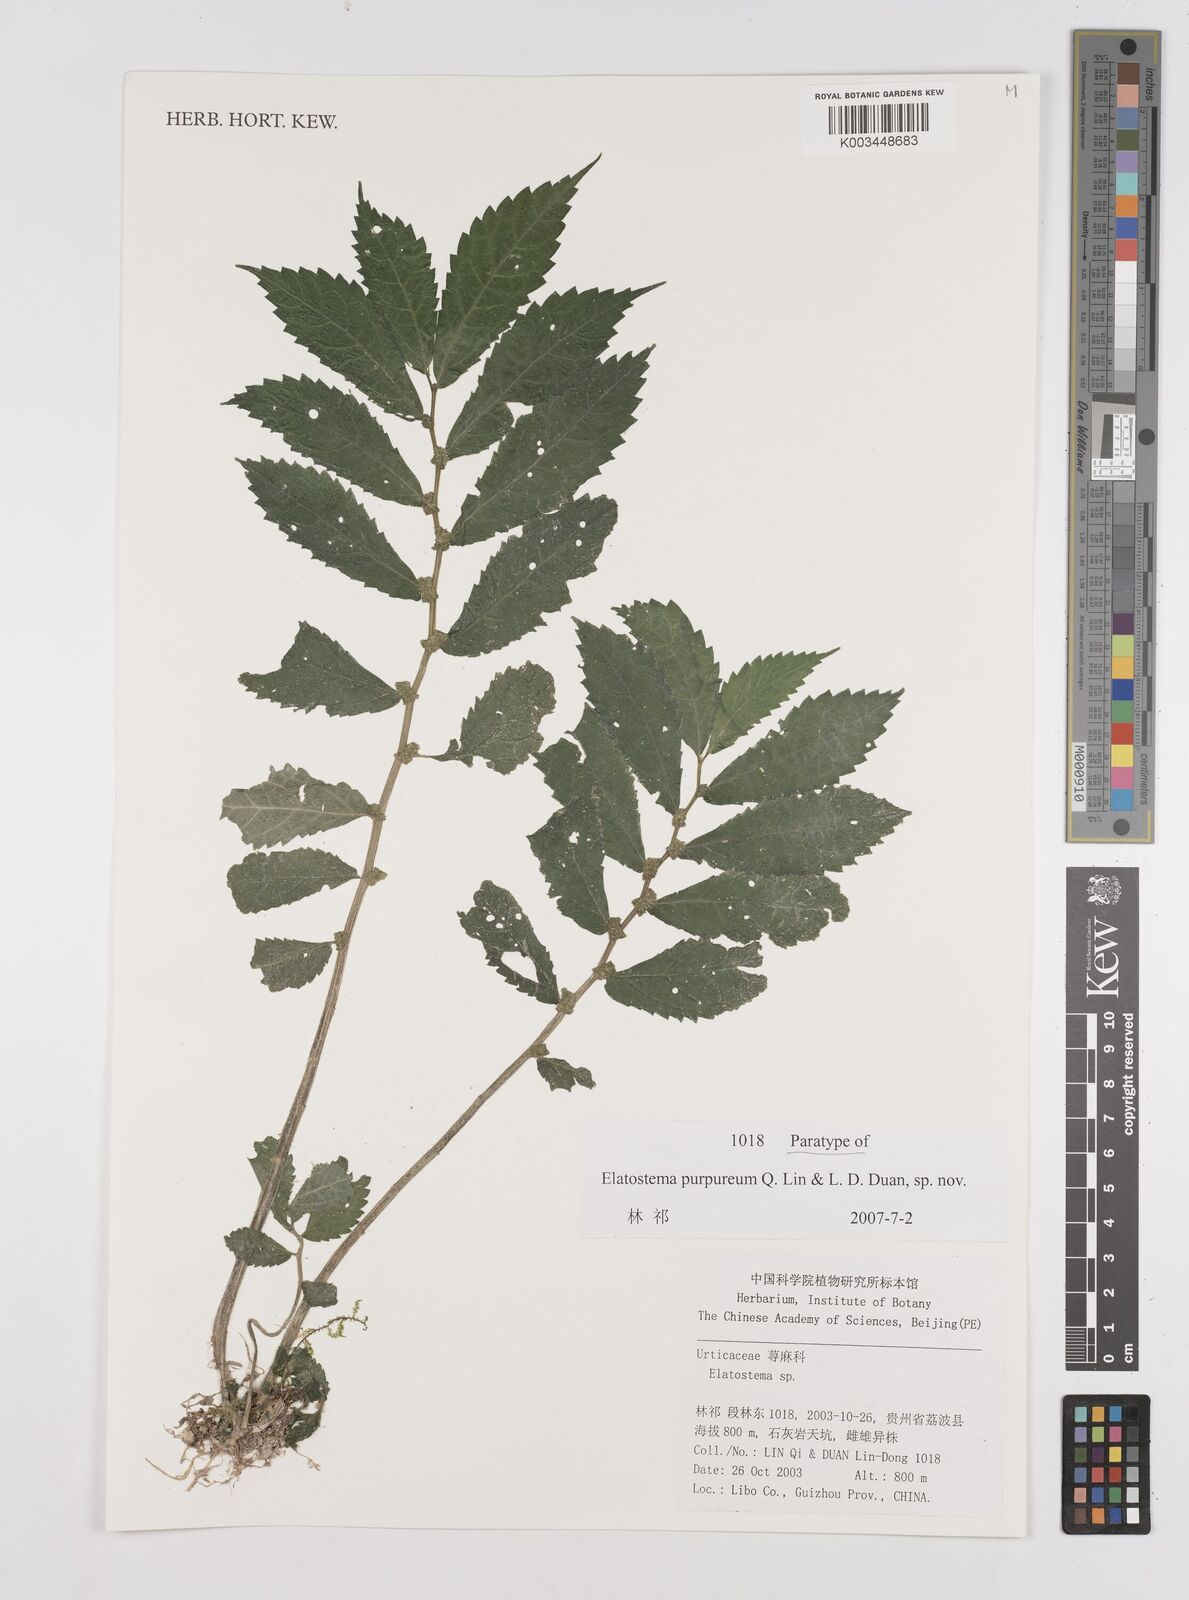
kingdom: Plantae
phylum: Tracheophyta
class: Magnoliopsida
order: Rosales
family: Urticaceae
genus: Elatostema
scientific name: Elatostema sinopurpureum
